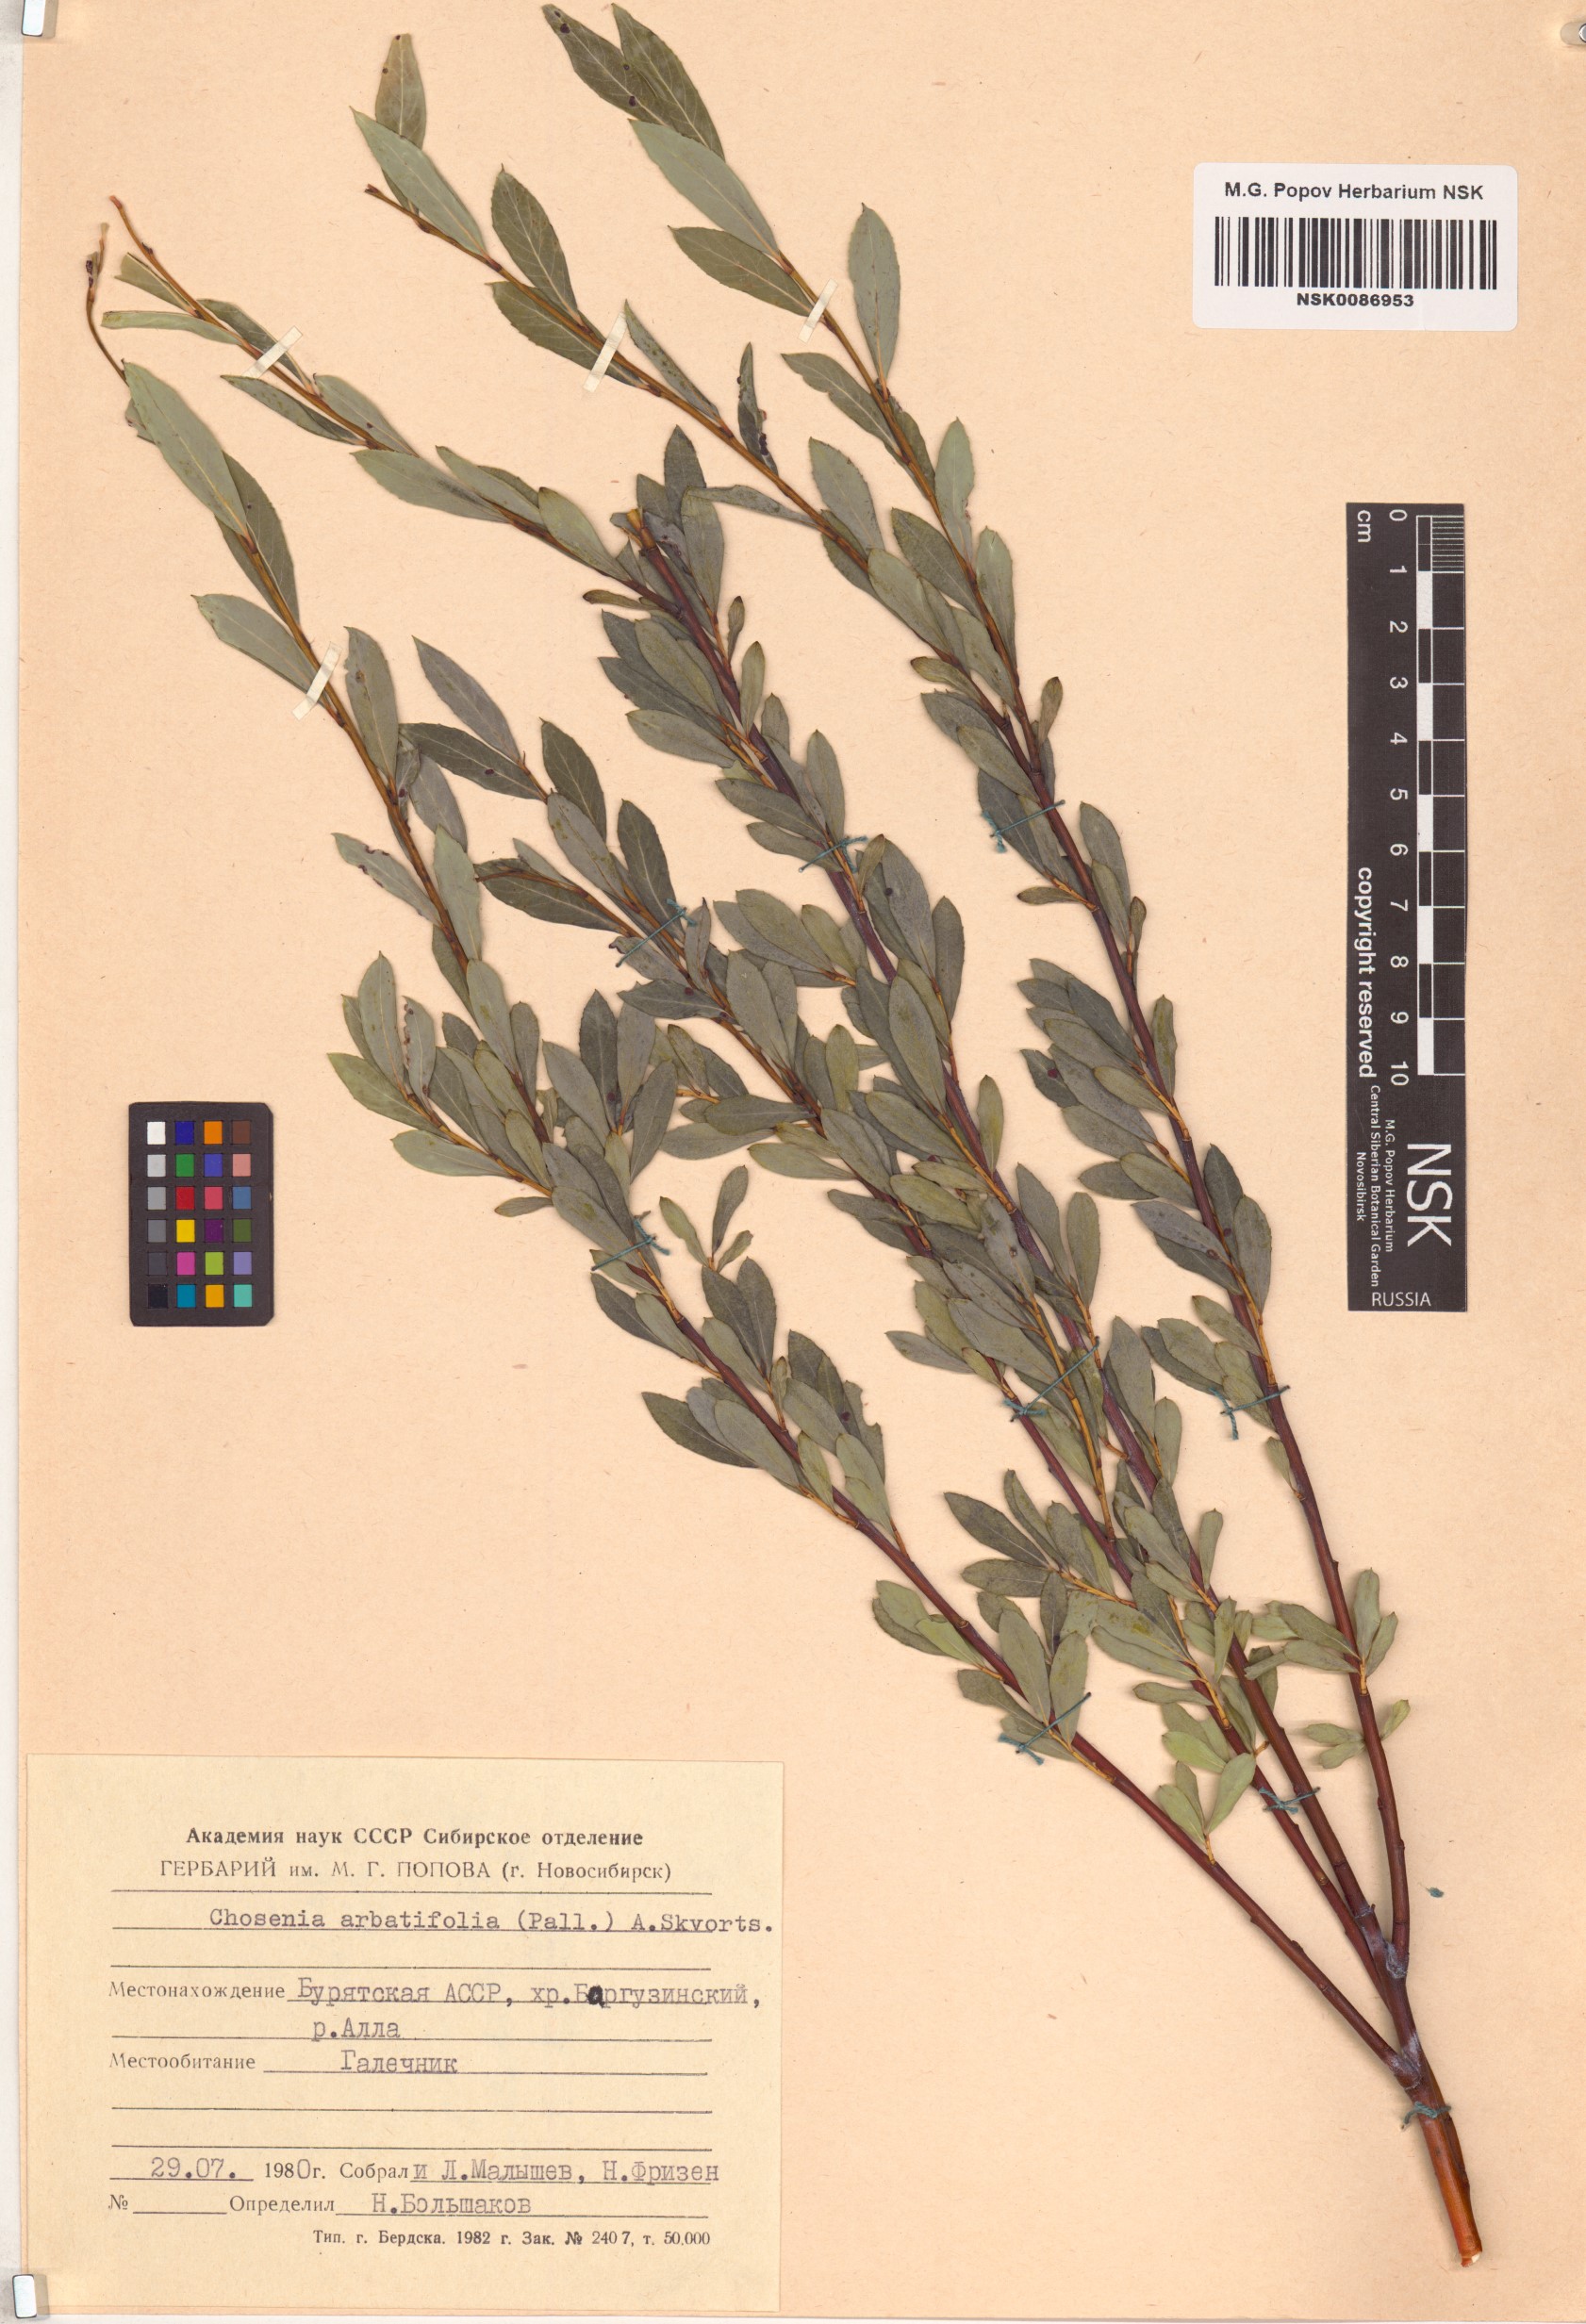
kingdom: Plantae
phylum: Tracheophyta
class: Magnoliopsida
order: Malpighiales
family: Salicaceae
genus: Chosenia
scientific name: Chosenia arbutifolia
